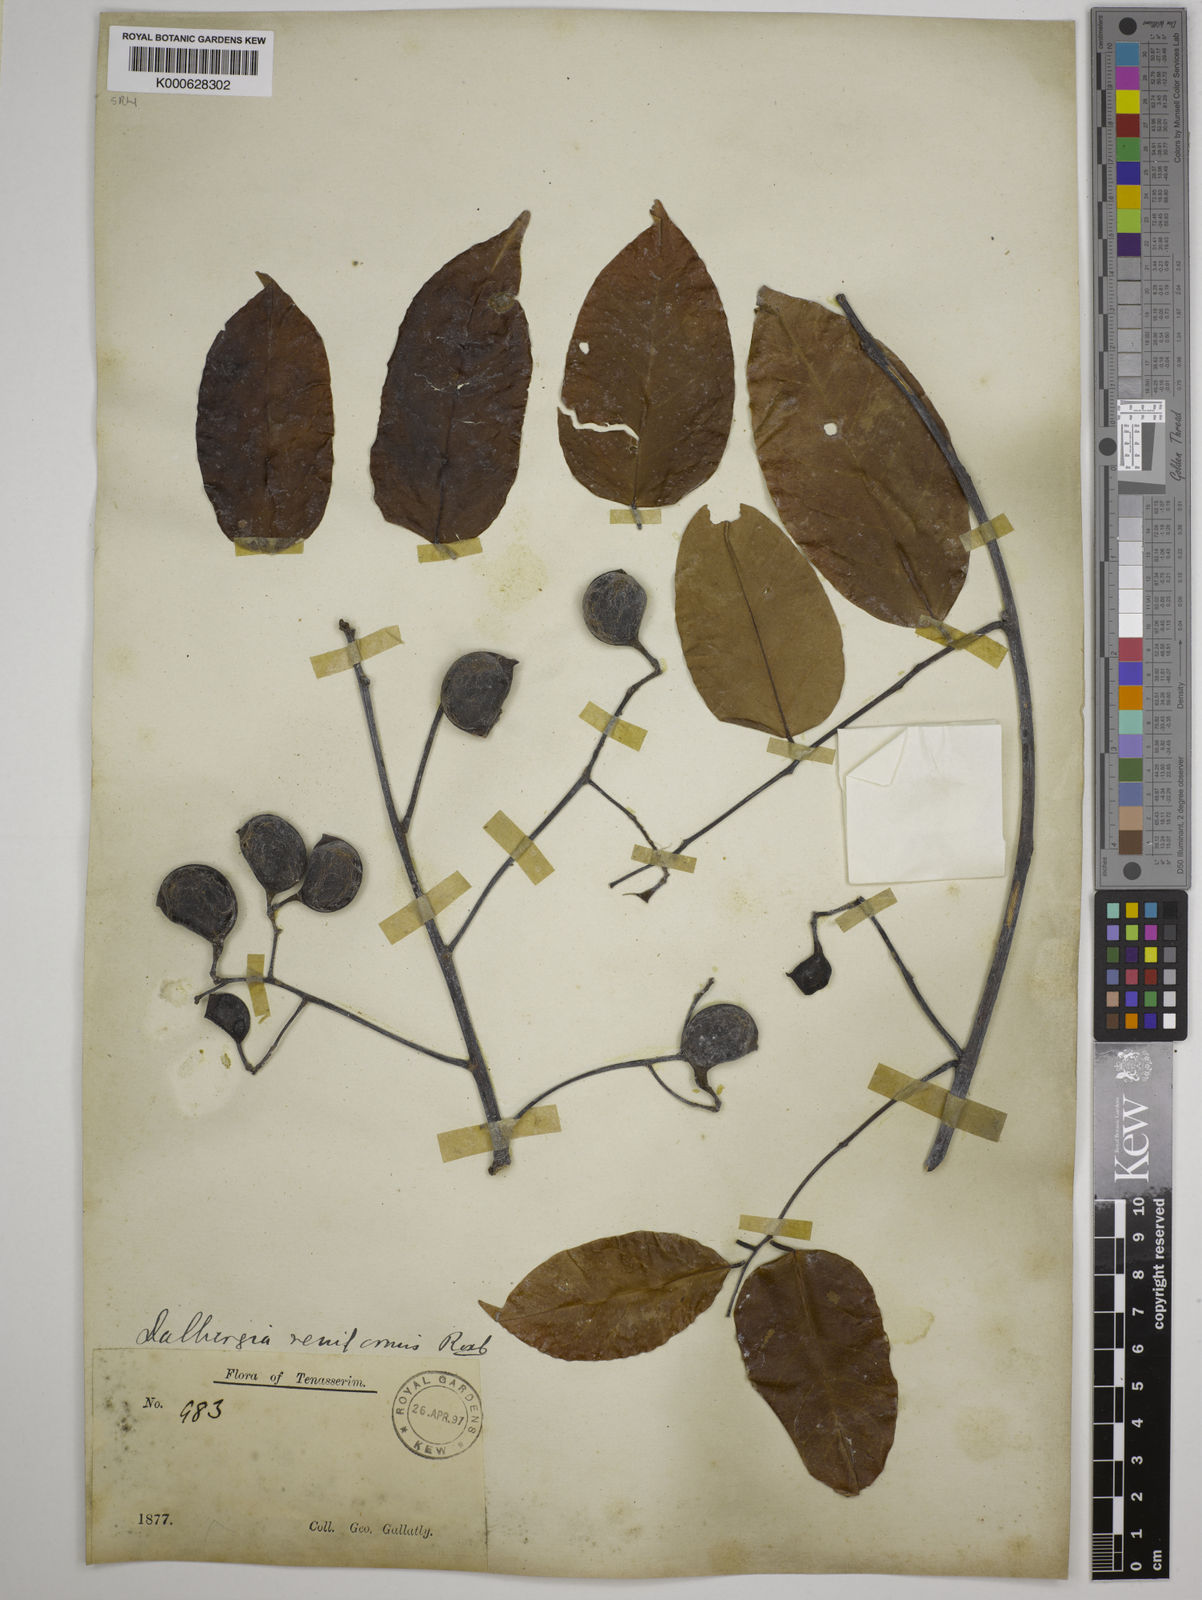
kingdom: Plantae
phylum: Tracheophyta
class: Magnoliopsida
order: Fabales
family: Fabaceae
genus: Dalbergia
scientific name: Dalbergia reniformis
